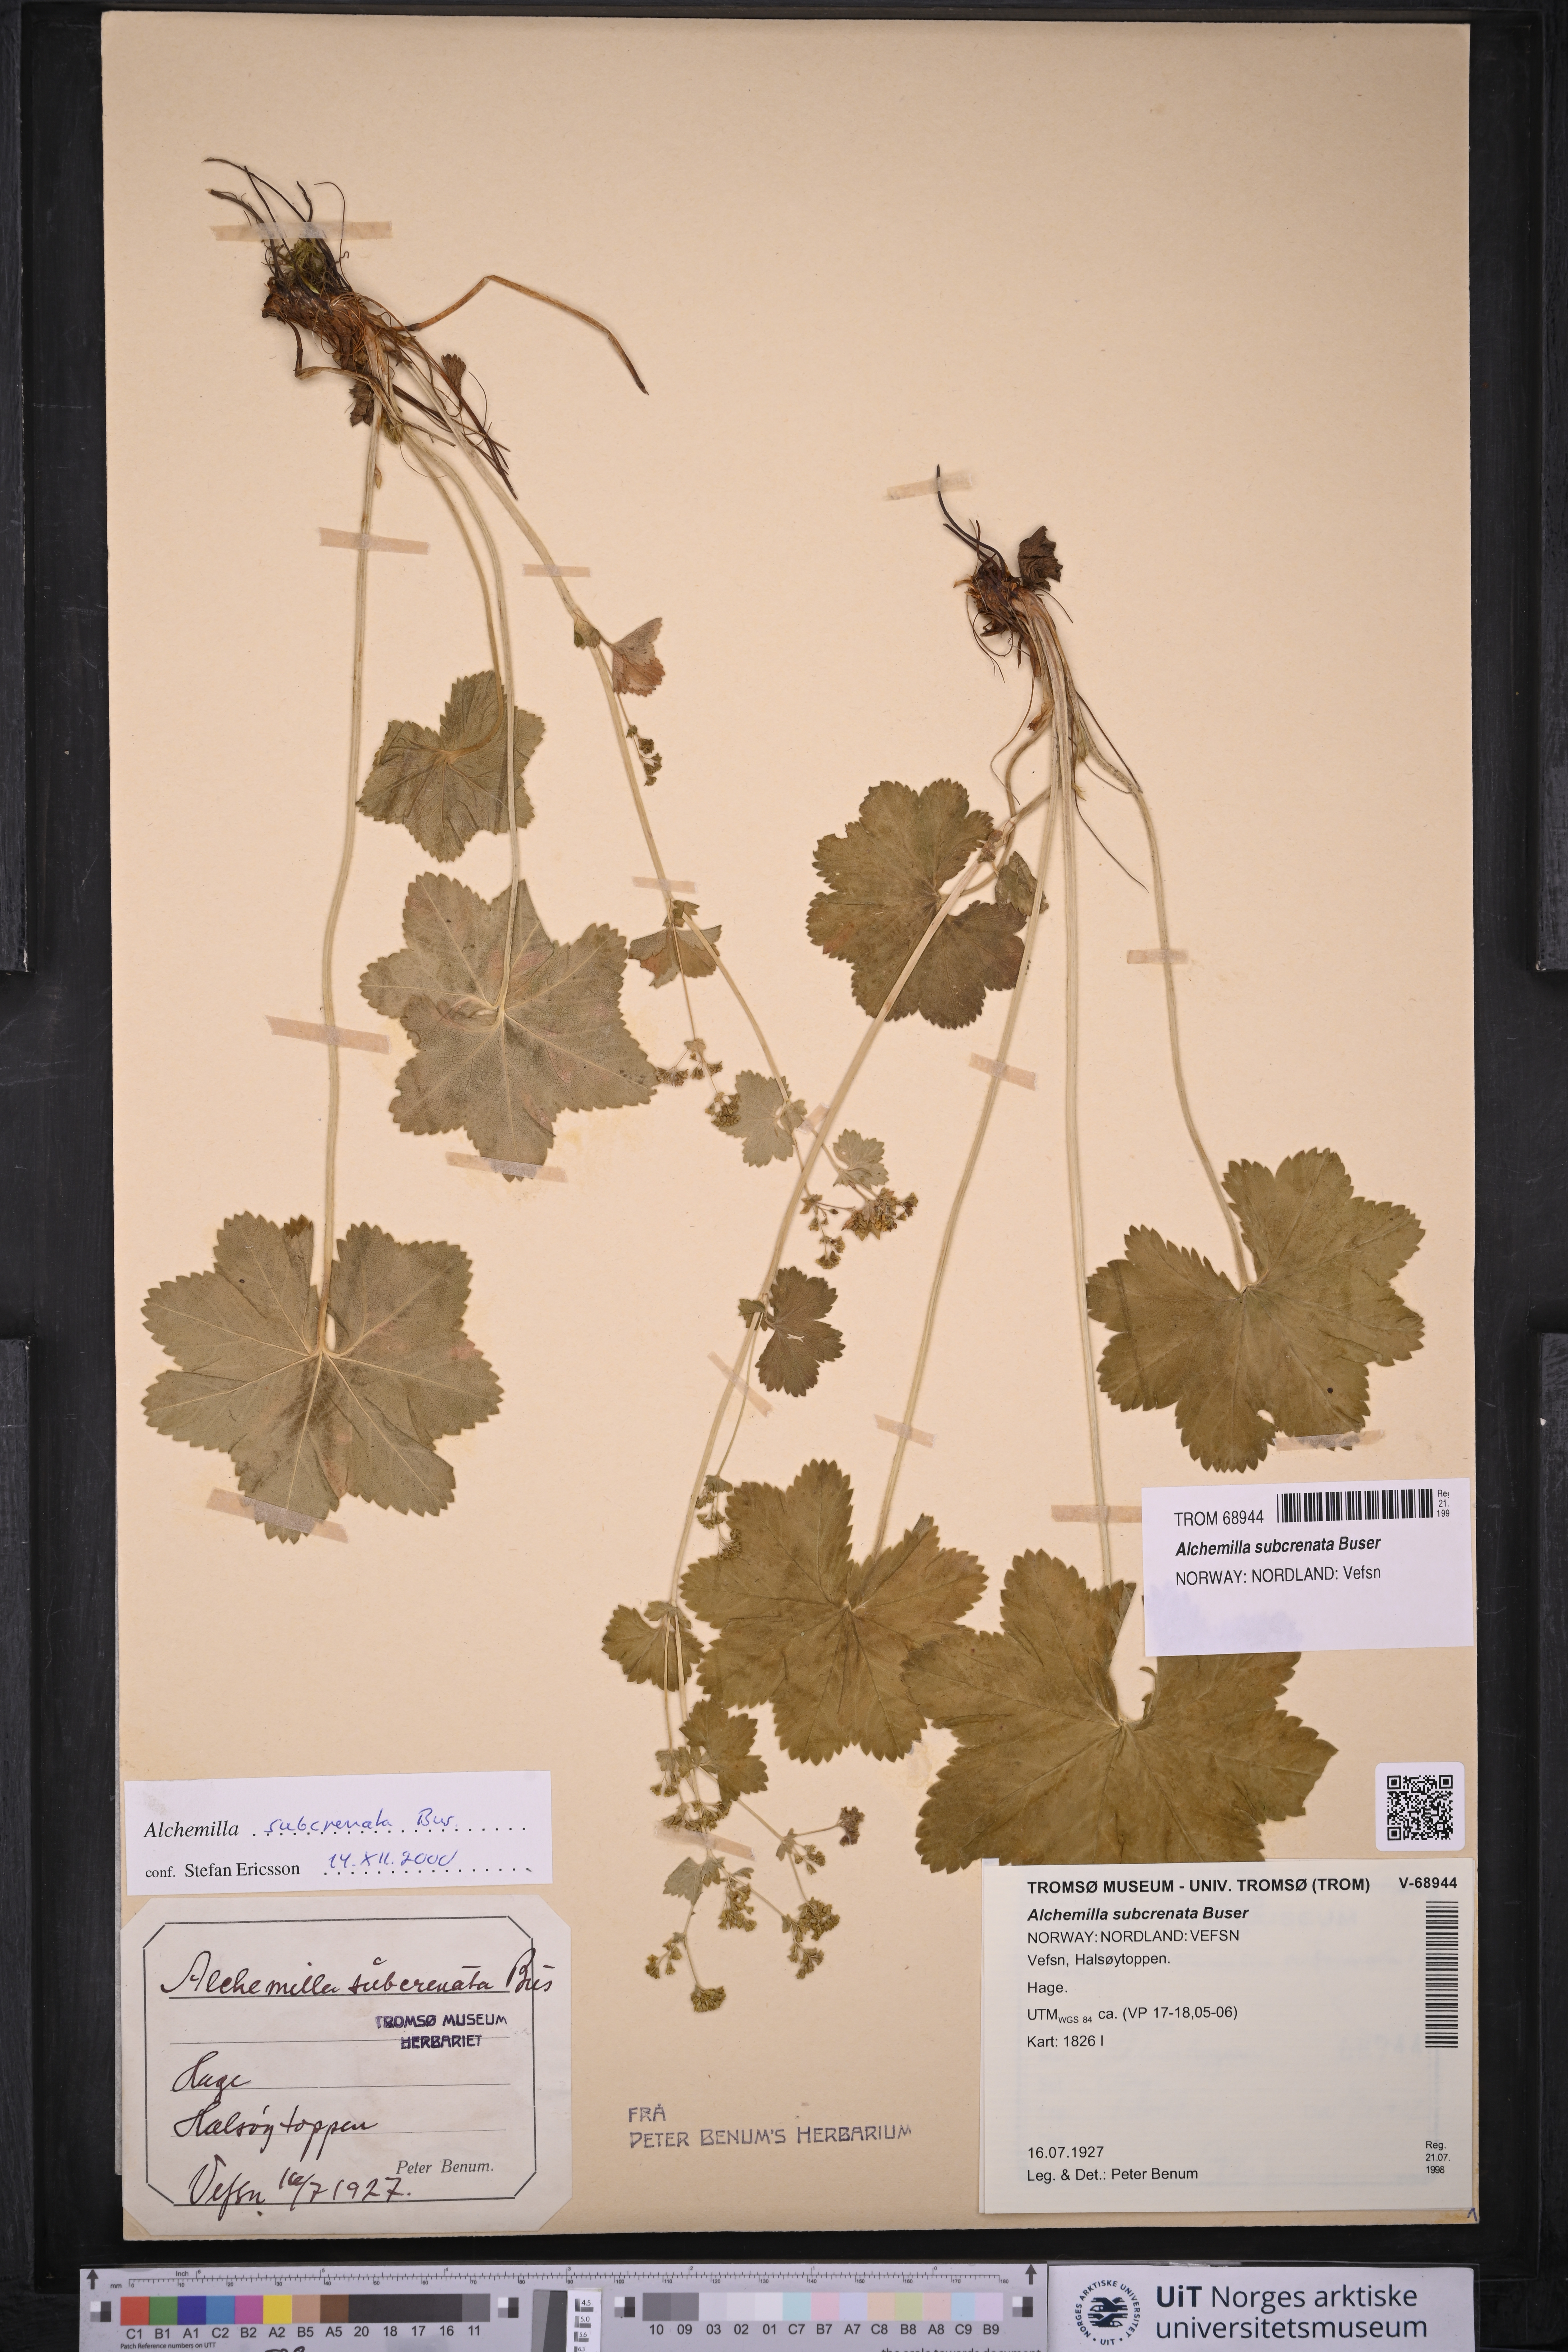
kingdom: Plantae
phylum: Tracheophyta
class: Magnoliopsida
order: Rosales
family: Rosaceae
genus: Alchemilla
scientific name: Alchemilla subcrenata
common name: Broadtooth lady's mantle
